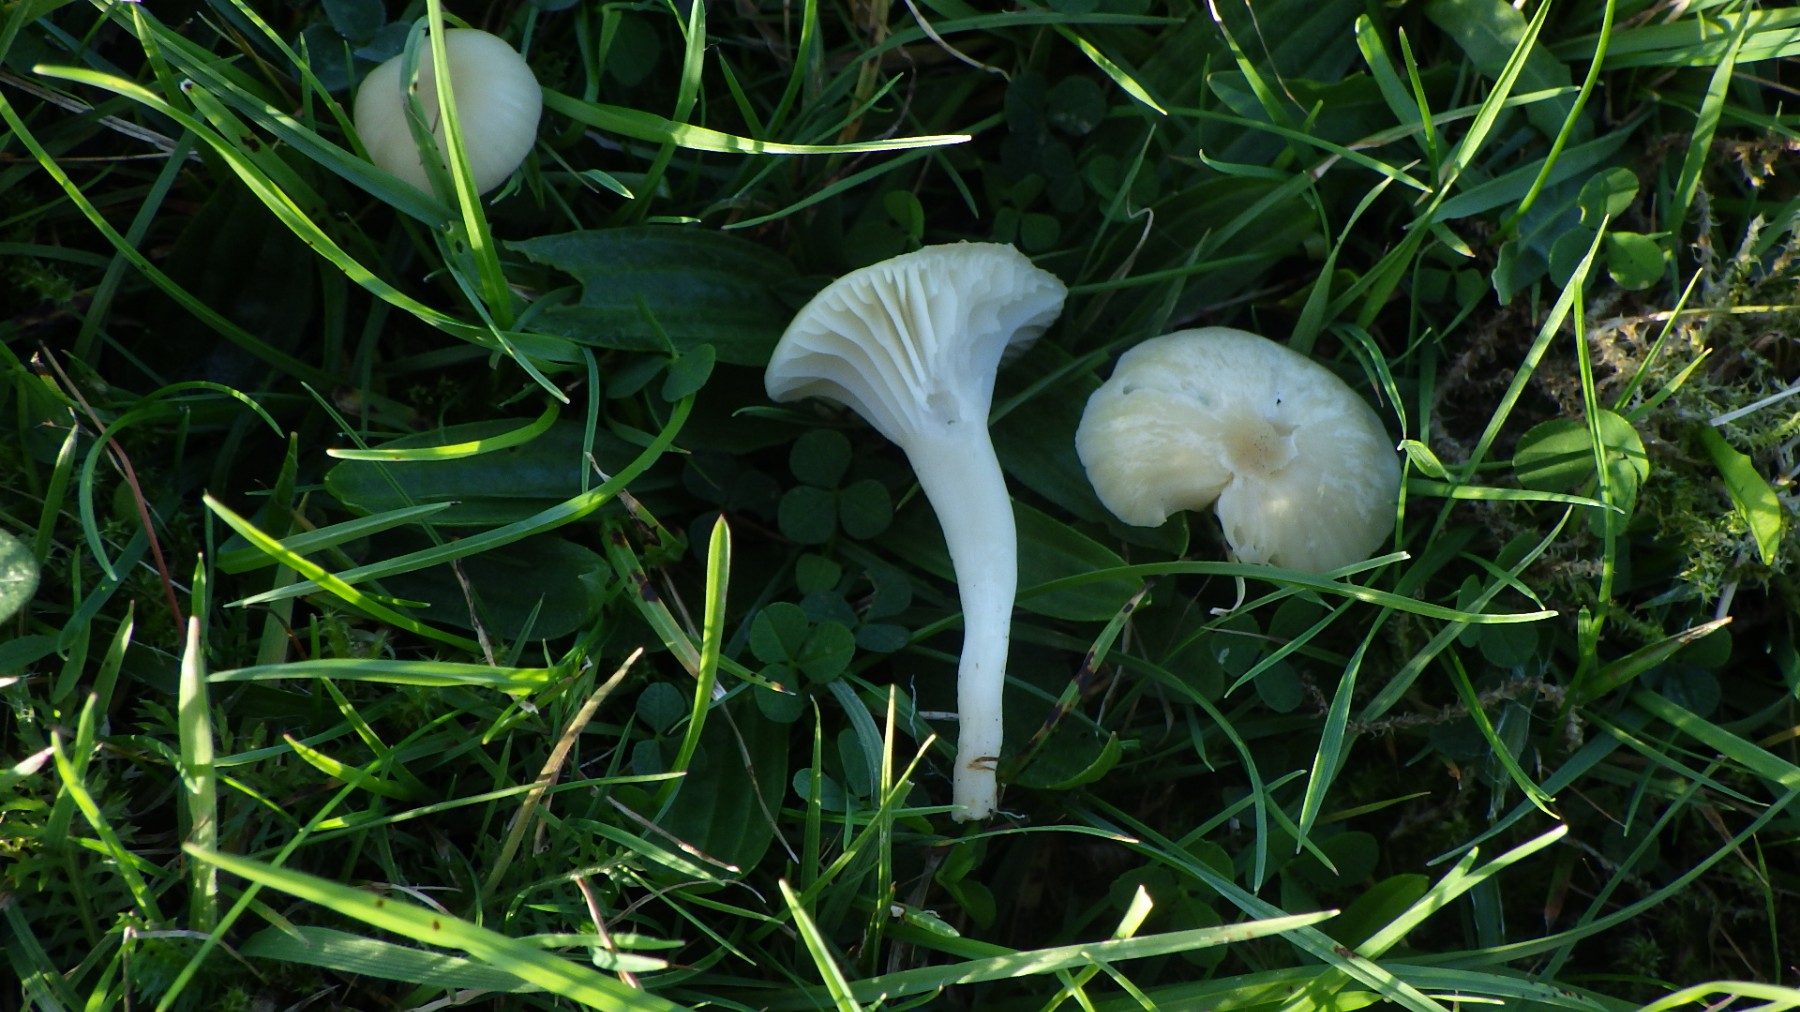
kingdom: Fungi
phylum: Basidiomycota
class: Agaricomycetes
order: Agaricales
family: Hygrophoraceae
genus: Cuphophyllus
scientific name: Cuphophyllus russocoriaceus
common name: ruslæder-vokshat
